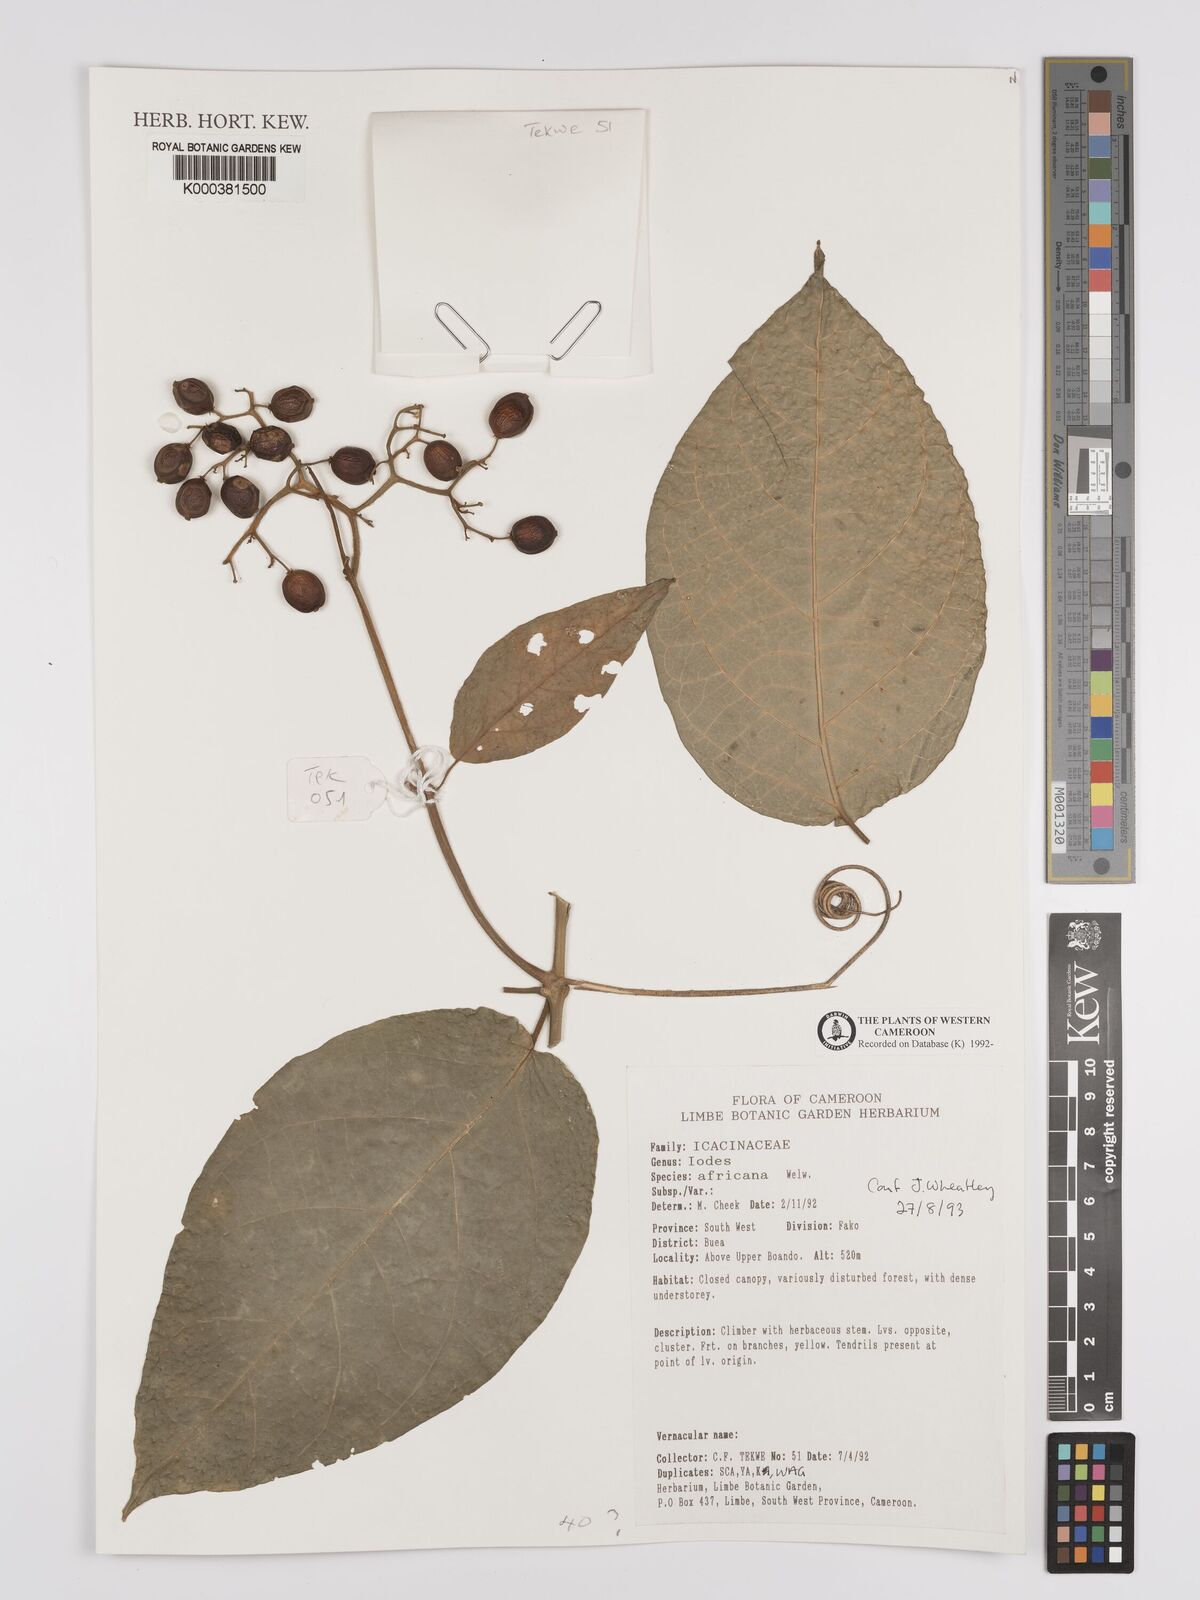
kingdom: Plantae
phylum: Tracheophyta
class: Magnoliopsida
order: Icacinales
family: Icacinaceae
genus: Iodes
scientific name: Iodes africana
